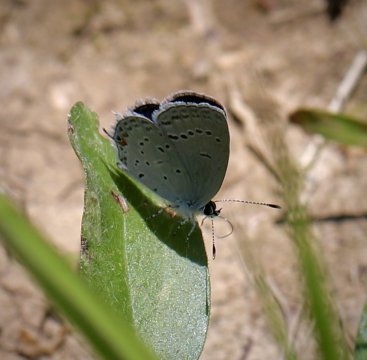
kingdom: Animalia
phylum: Arthropoda
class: Insecta
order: Lepidoptera
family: Lycaenidae
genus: Elkalyce
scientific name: Elkalyce comyntas
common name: Eastern Tailed-Blue
